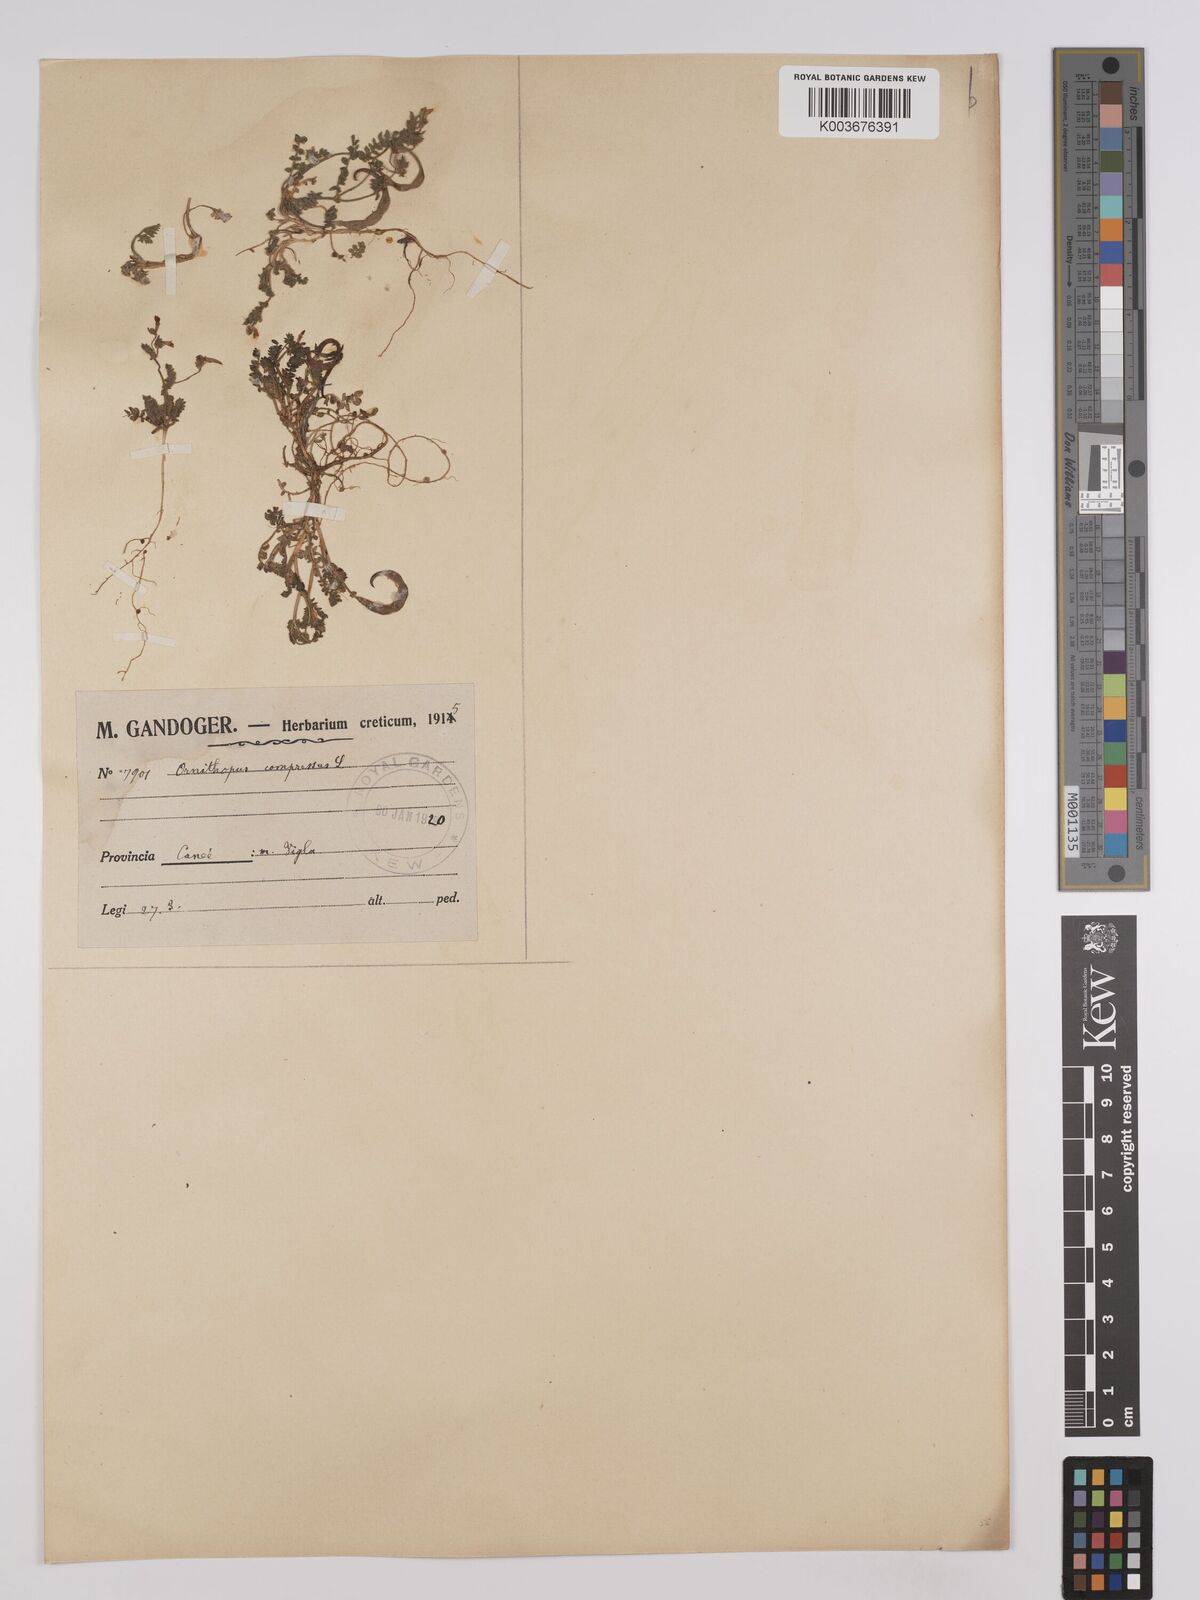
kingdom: Plantae
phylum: Tracheophyta
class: Magnoliopsida
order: Fabales
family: Fabaceae
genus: Ornithopus
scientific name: Ornithopus compressus
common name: Yellow serradella
